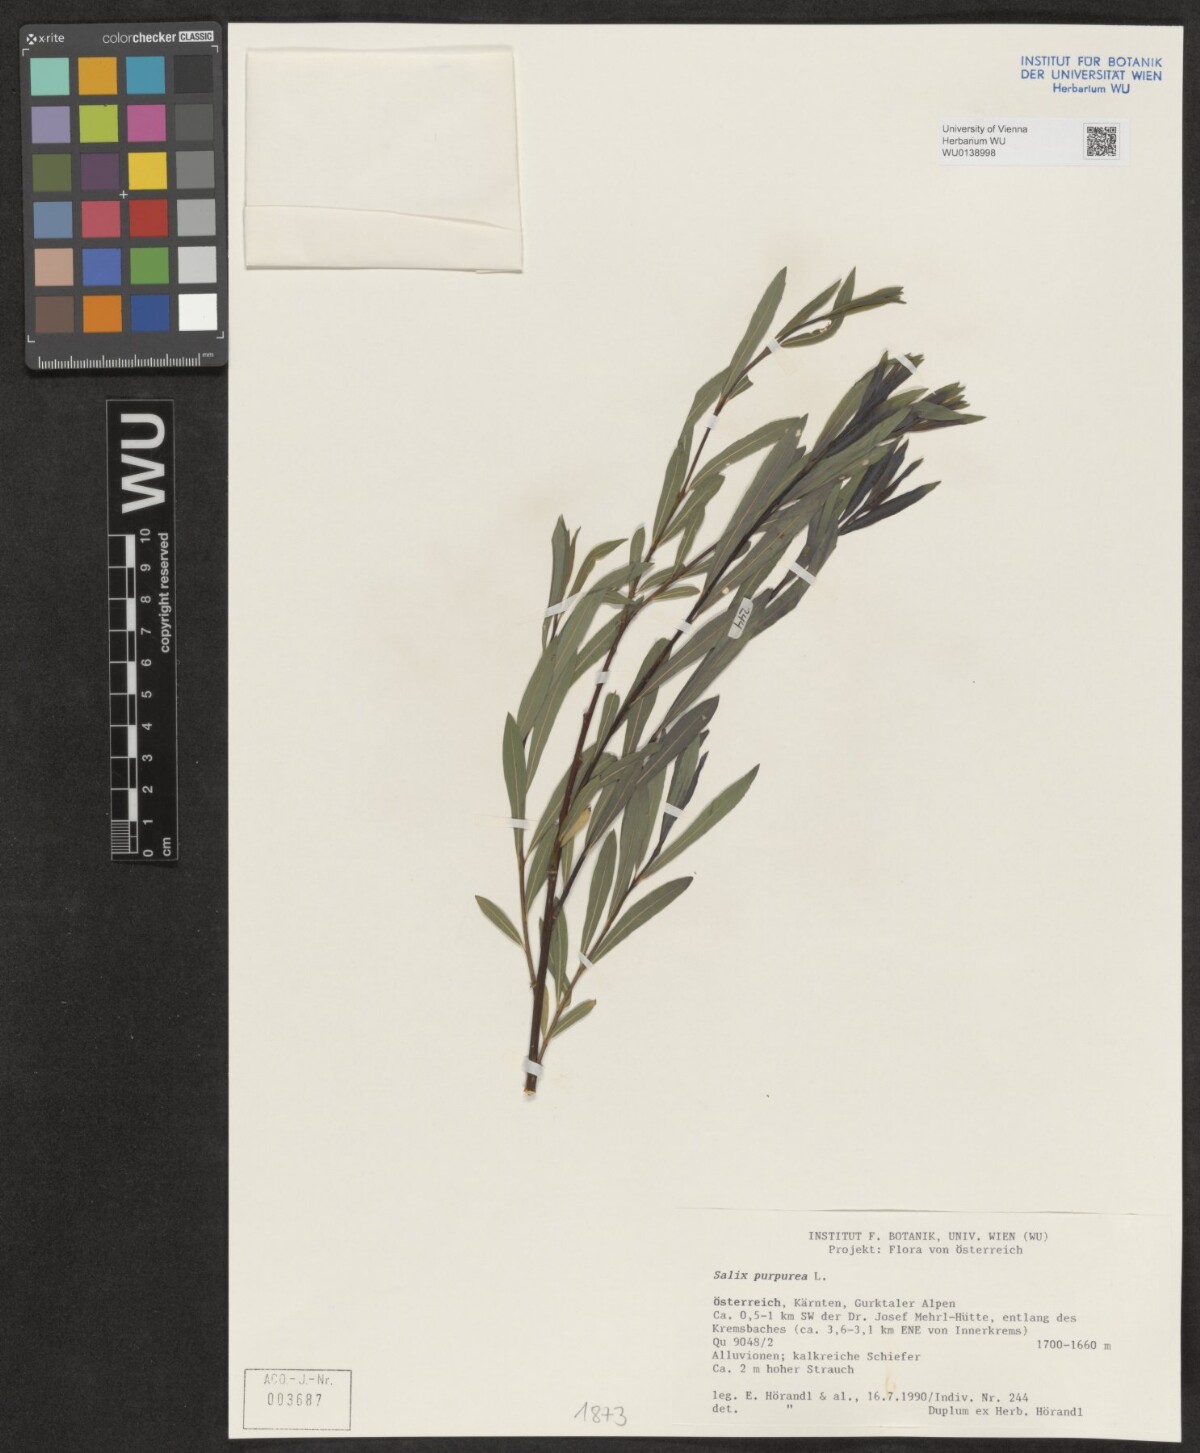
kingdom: Plantae
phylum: Tracheophyta
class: Magnoliopsida
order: Malpighiales
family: Salicaceae
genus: Salix
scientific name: Salix purpurea
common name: Purple willow
